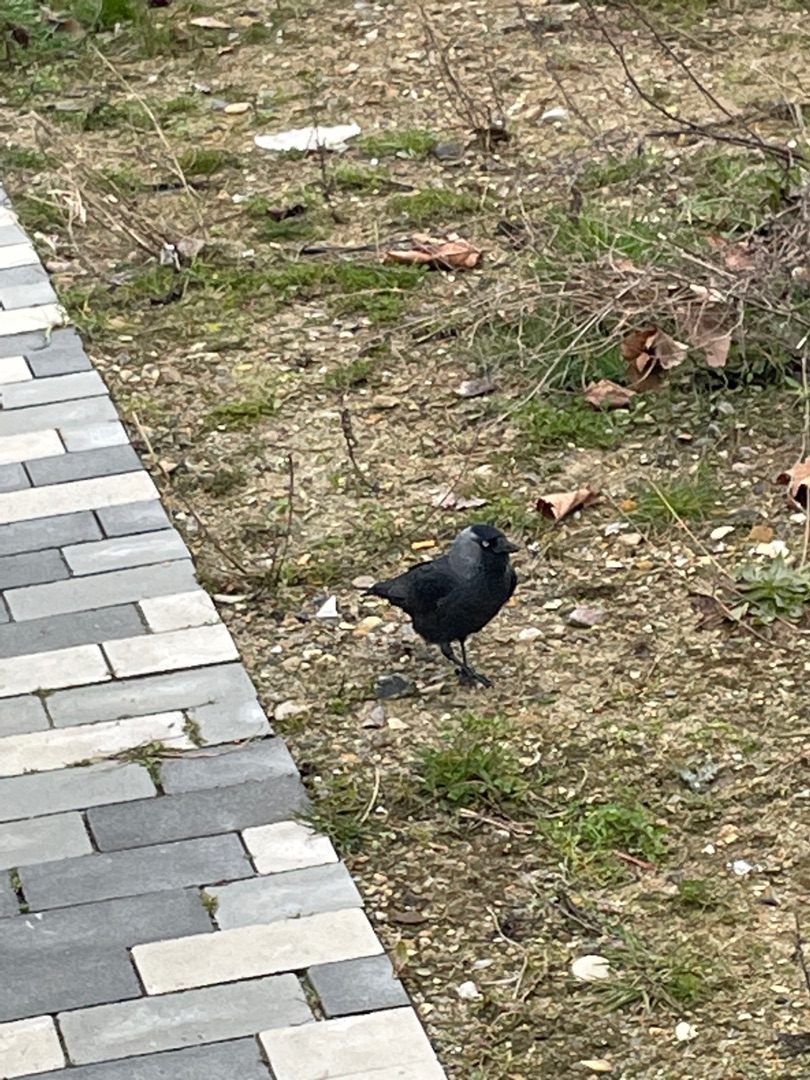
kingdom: Animalia
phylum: Chordata
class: Aves
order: Passeriformes
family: Corvidae
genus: Coloeus
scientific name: Coloeus monedula
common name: Allike
